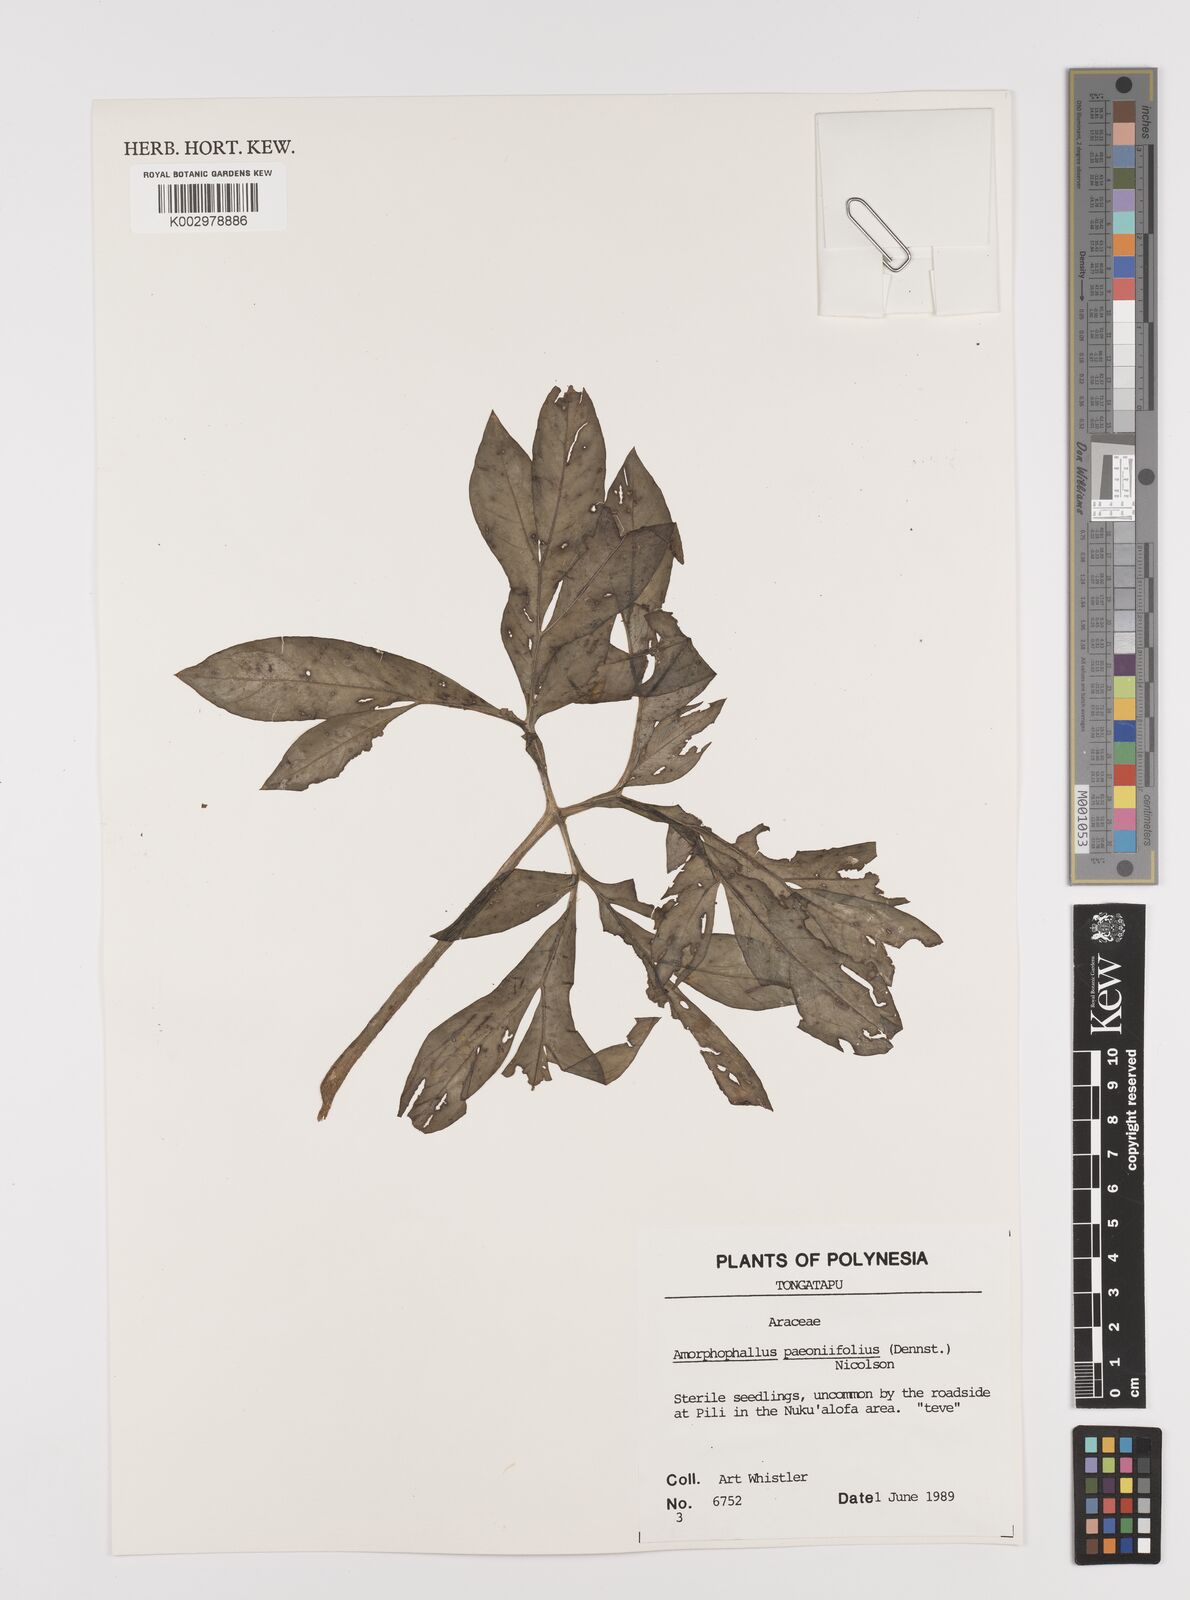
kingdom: Plantae
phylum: Tracheophyta
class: Liliopsida
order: Alismatales
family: Araceae
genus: Amorphophallus
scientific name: Amorphophallus paeoniifolius
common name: Telinga-potato
